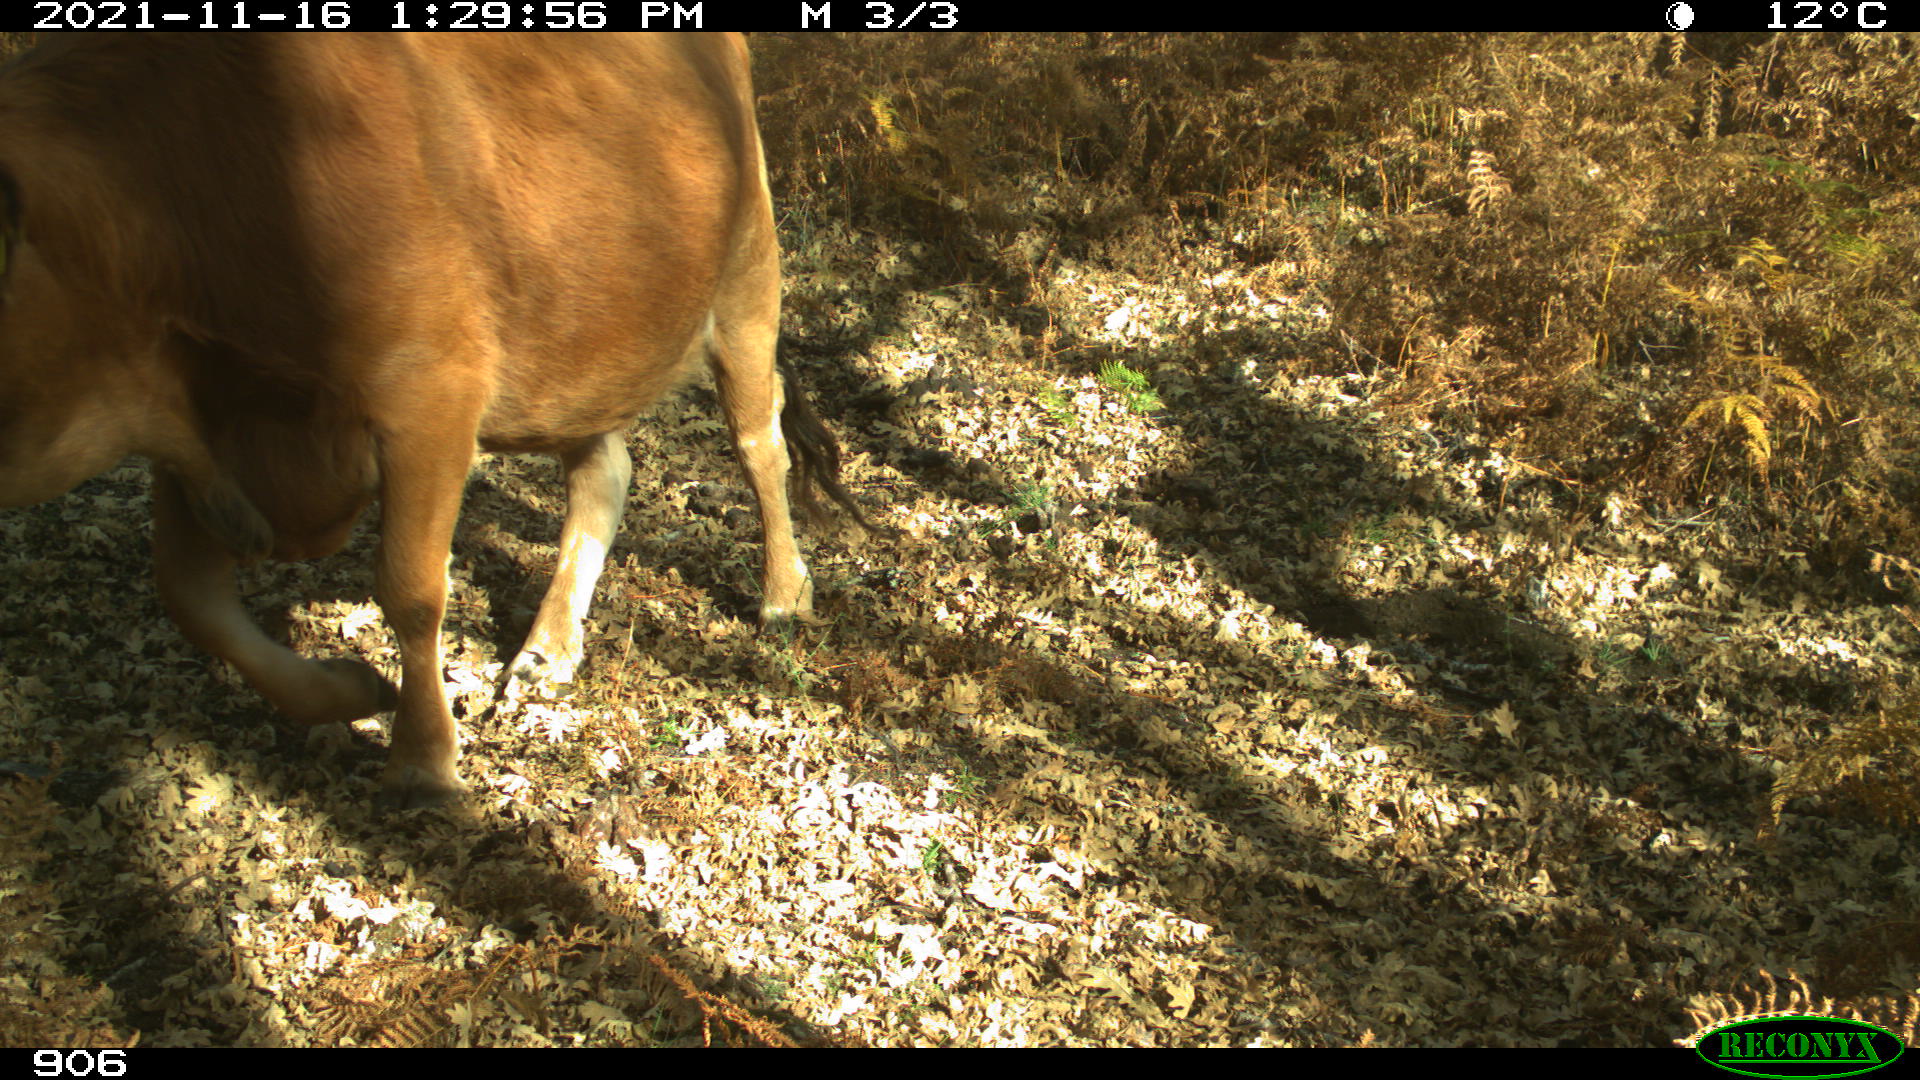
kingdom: Animalia
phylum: Chordata
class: Mammalia
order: Artiodactyla
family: Bovidae
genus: Bos
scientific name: Bos taurus
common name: Domesticated cattle
